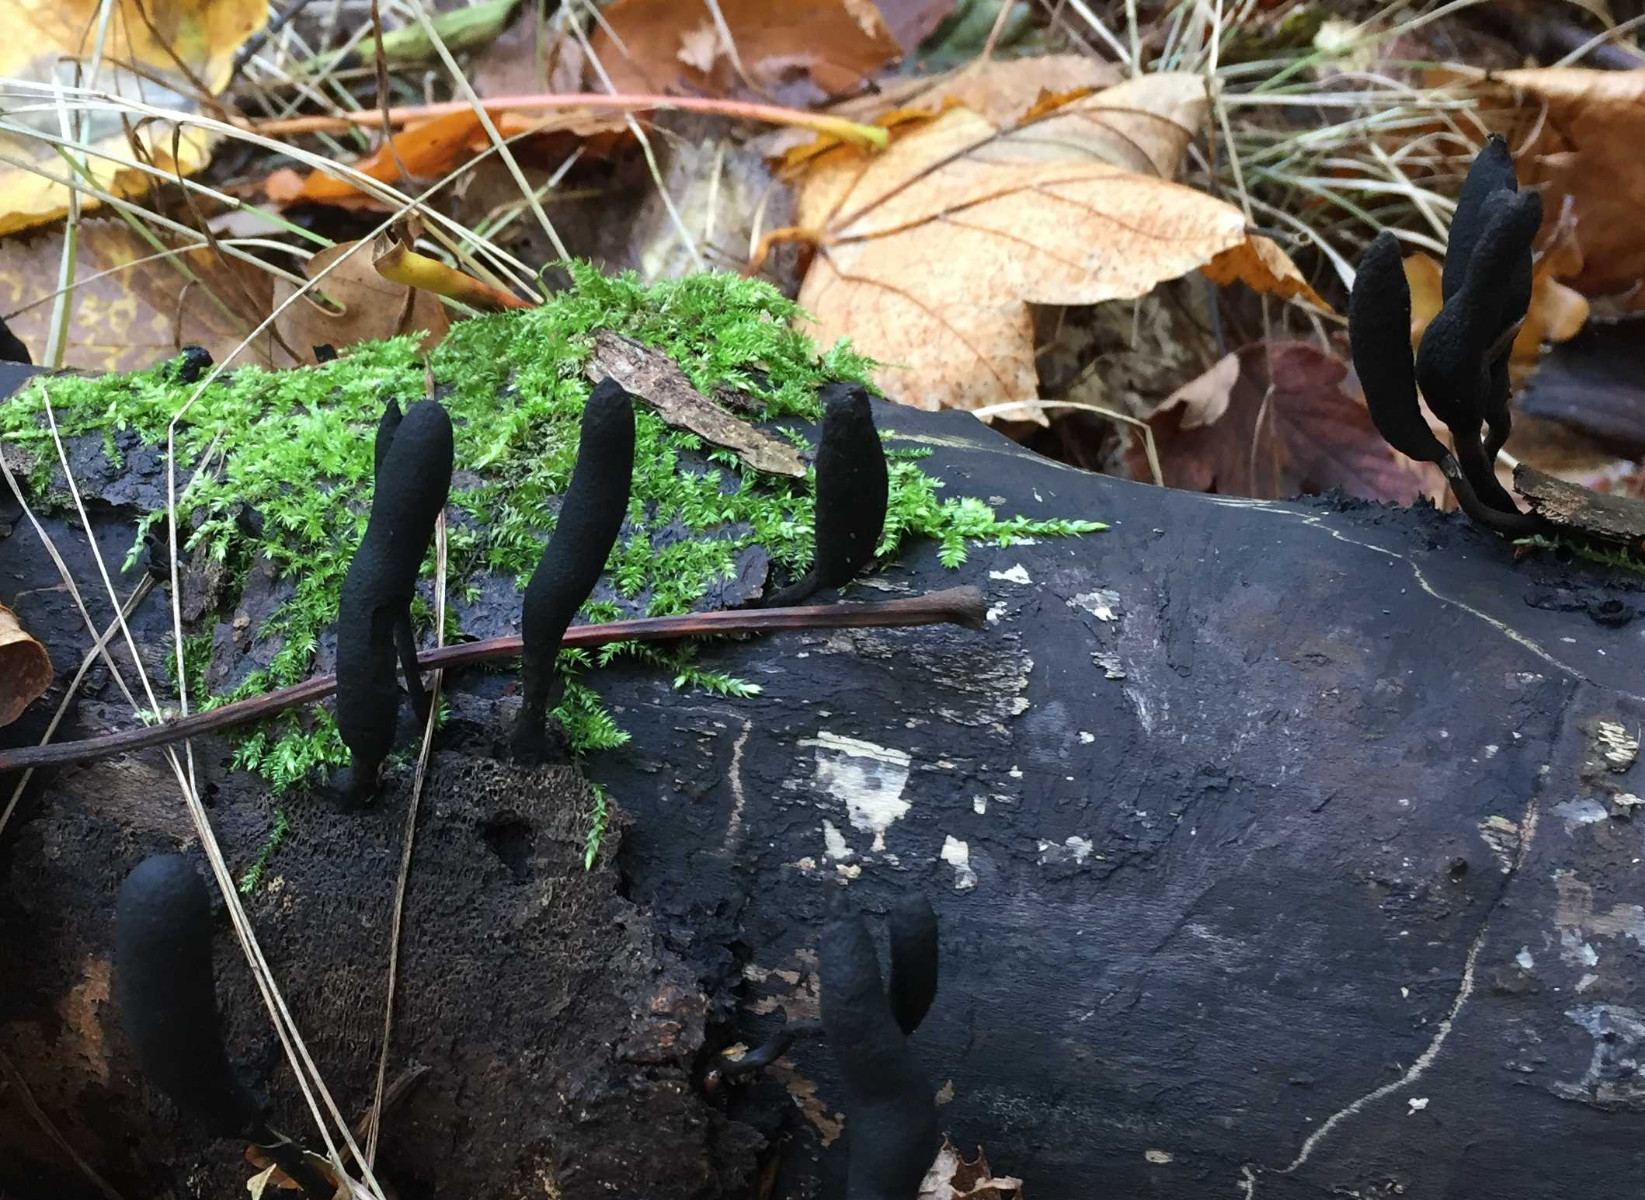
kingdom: Fungi
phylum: Ascomycota
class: Sordariomycetes
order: Xylariales
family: Xylariaceae
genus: Xylaria
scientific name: Xylaria longipes
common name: slank stødsvamp
